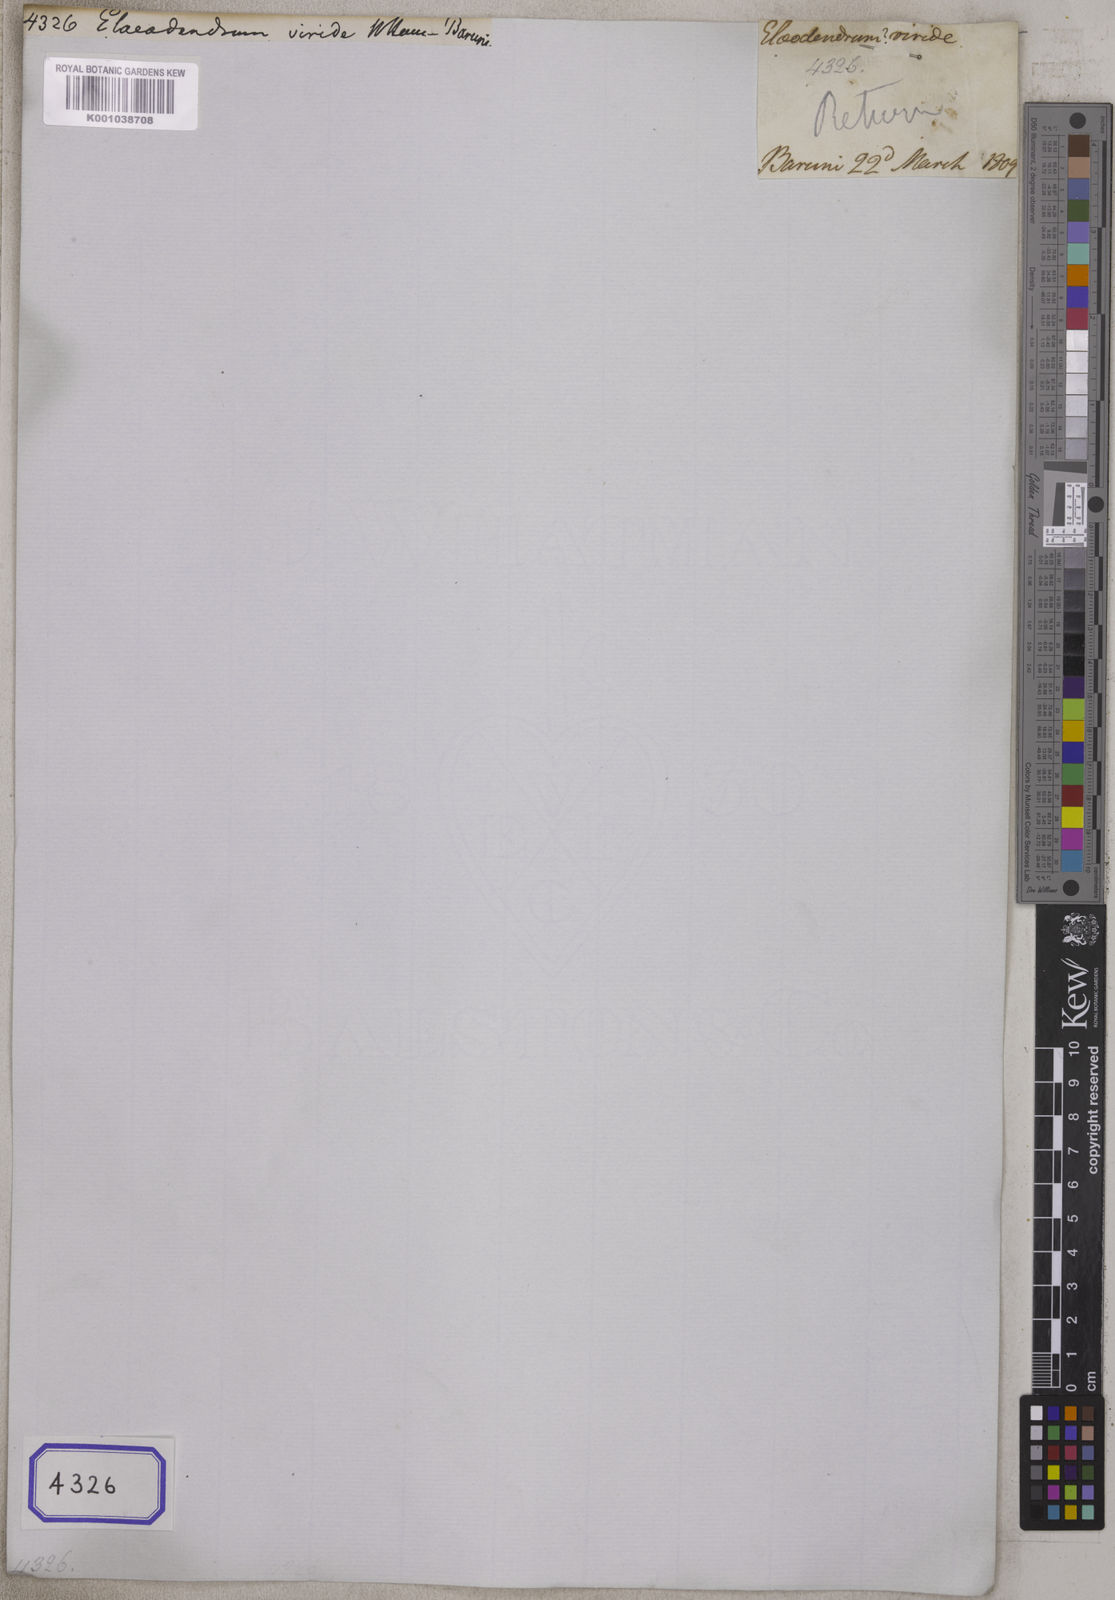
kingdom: Plantae
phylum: Tracheophyta
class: Magnoliopsida
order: Celastrales
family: Celastraceae
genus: Elaeodendron
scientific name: Elaeodendron
